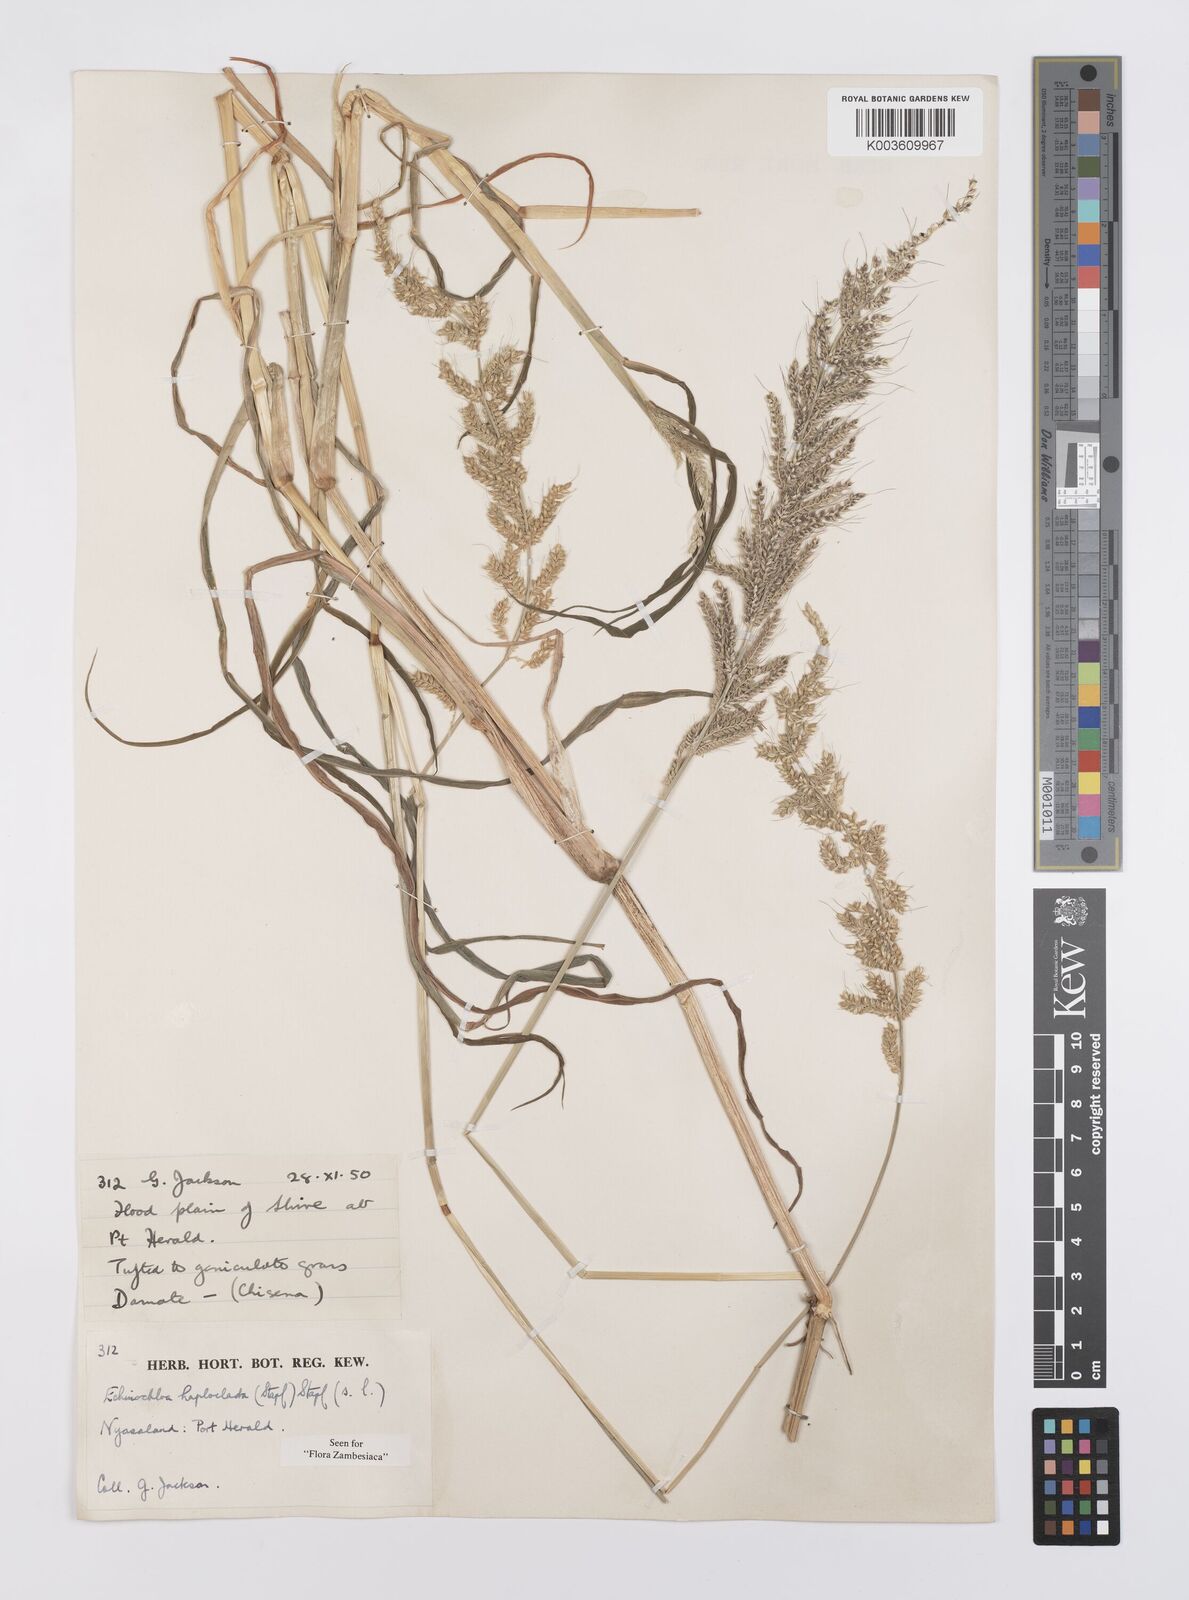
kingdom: Plantae
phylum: Tracheophyta
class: Liliopsida
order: Poales
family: Poaceae
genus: Echinochloa
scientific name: Echinochloa haploclada
